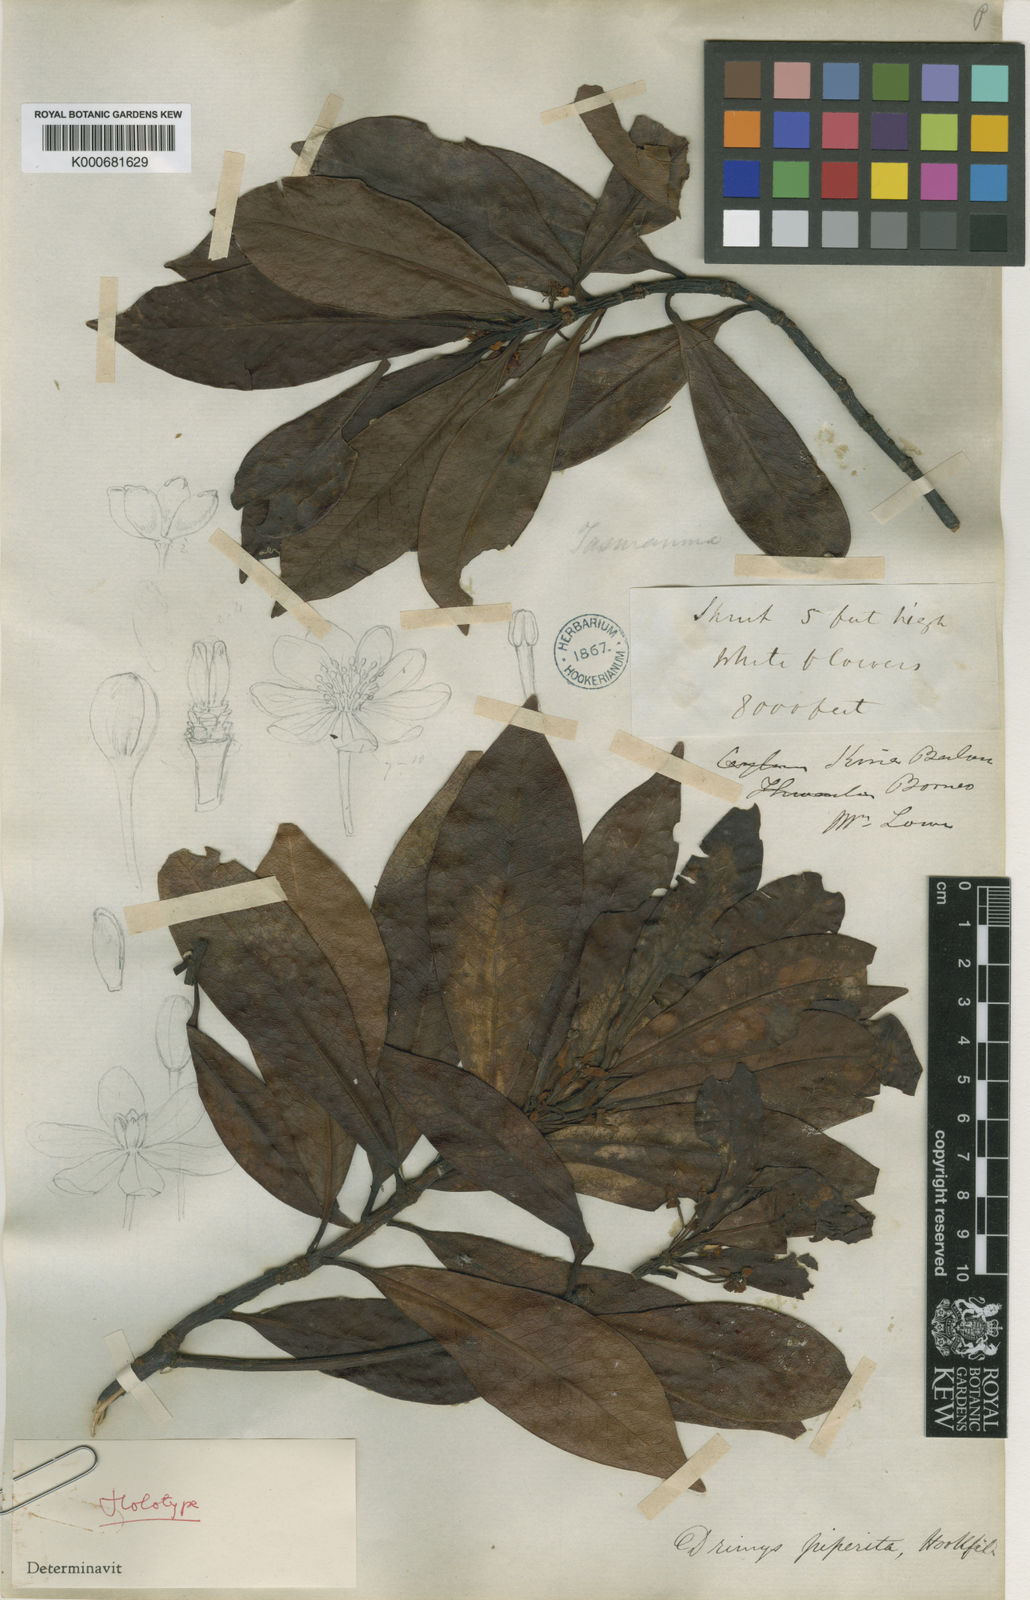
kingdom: Plantae
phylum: Tracheophyta
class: Magnoliopsida
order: Canellales
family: Winteraceae
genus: Drimys
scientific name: Drimys piperita
